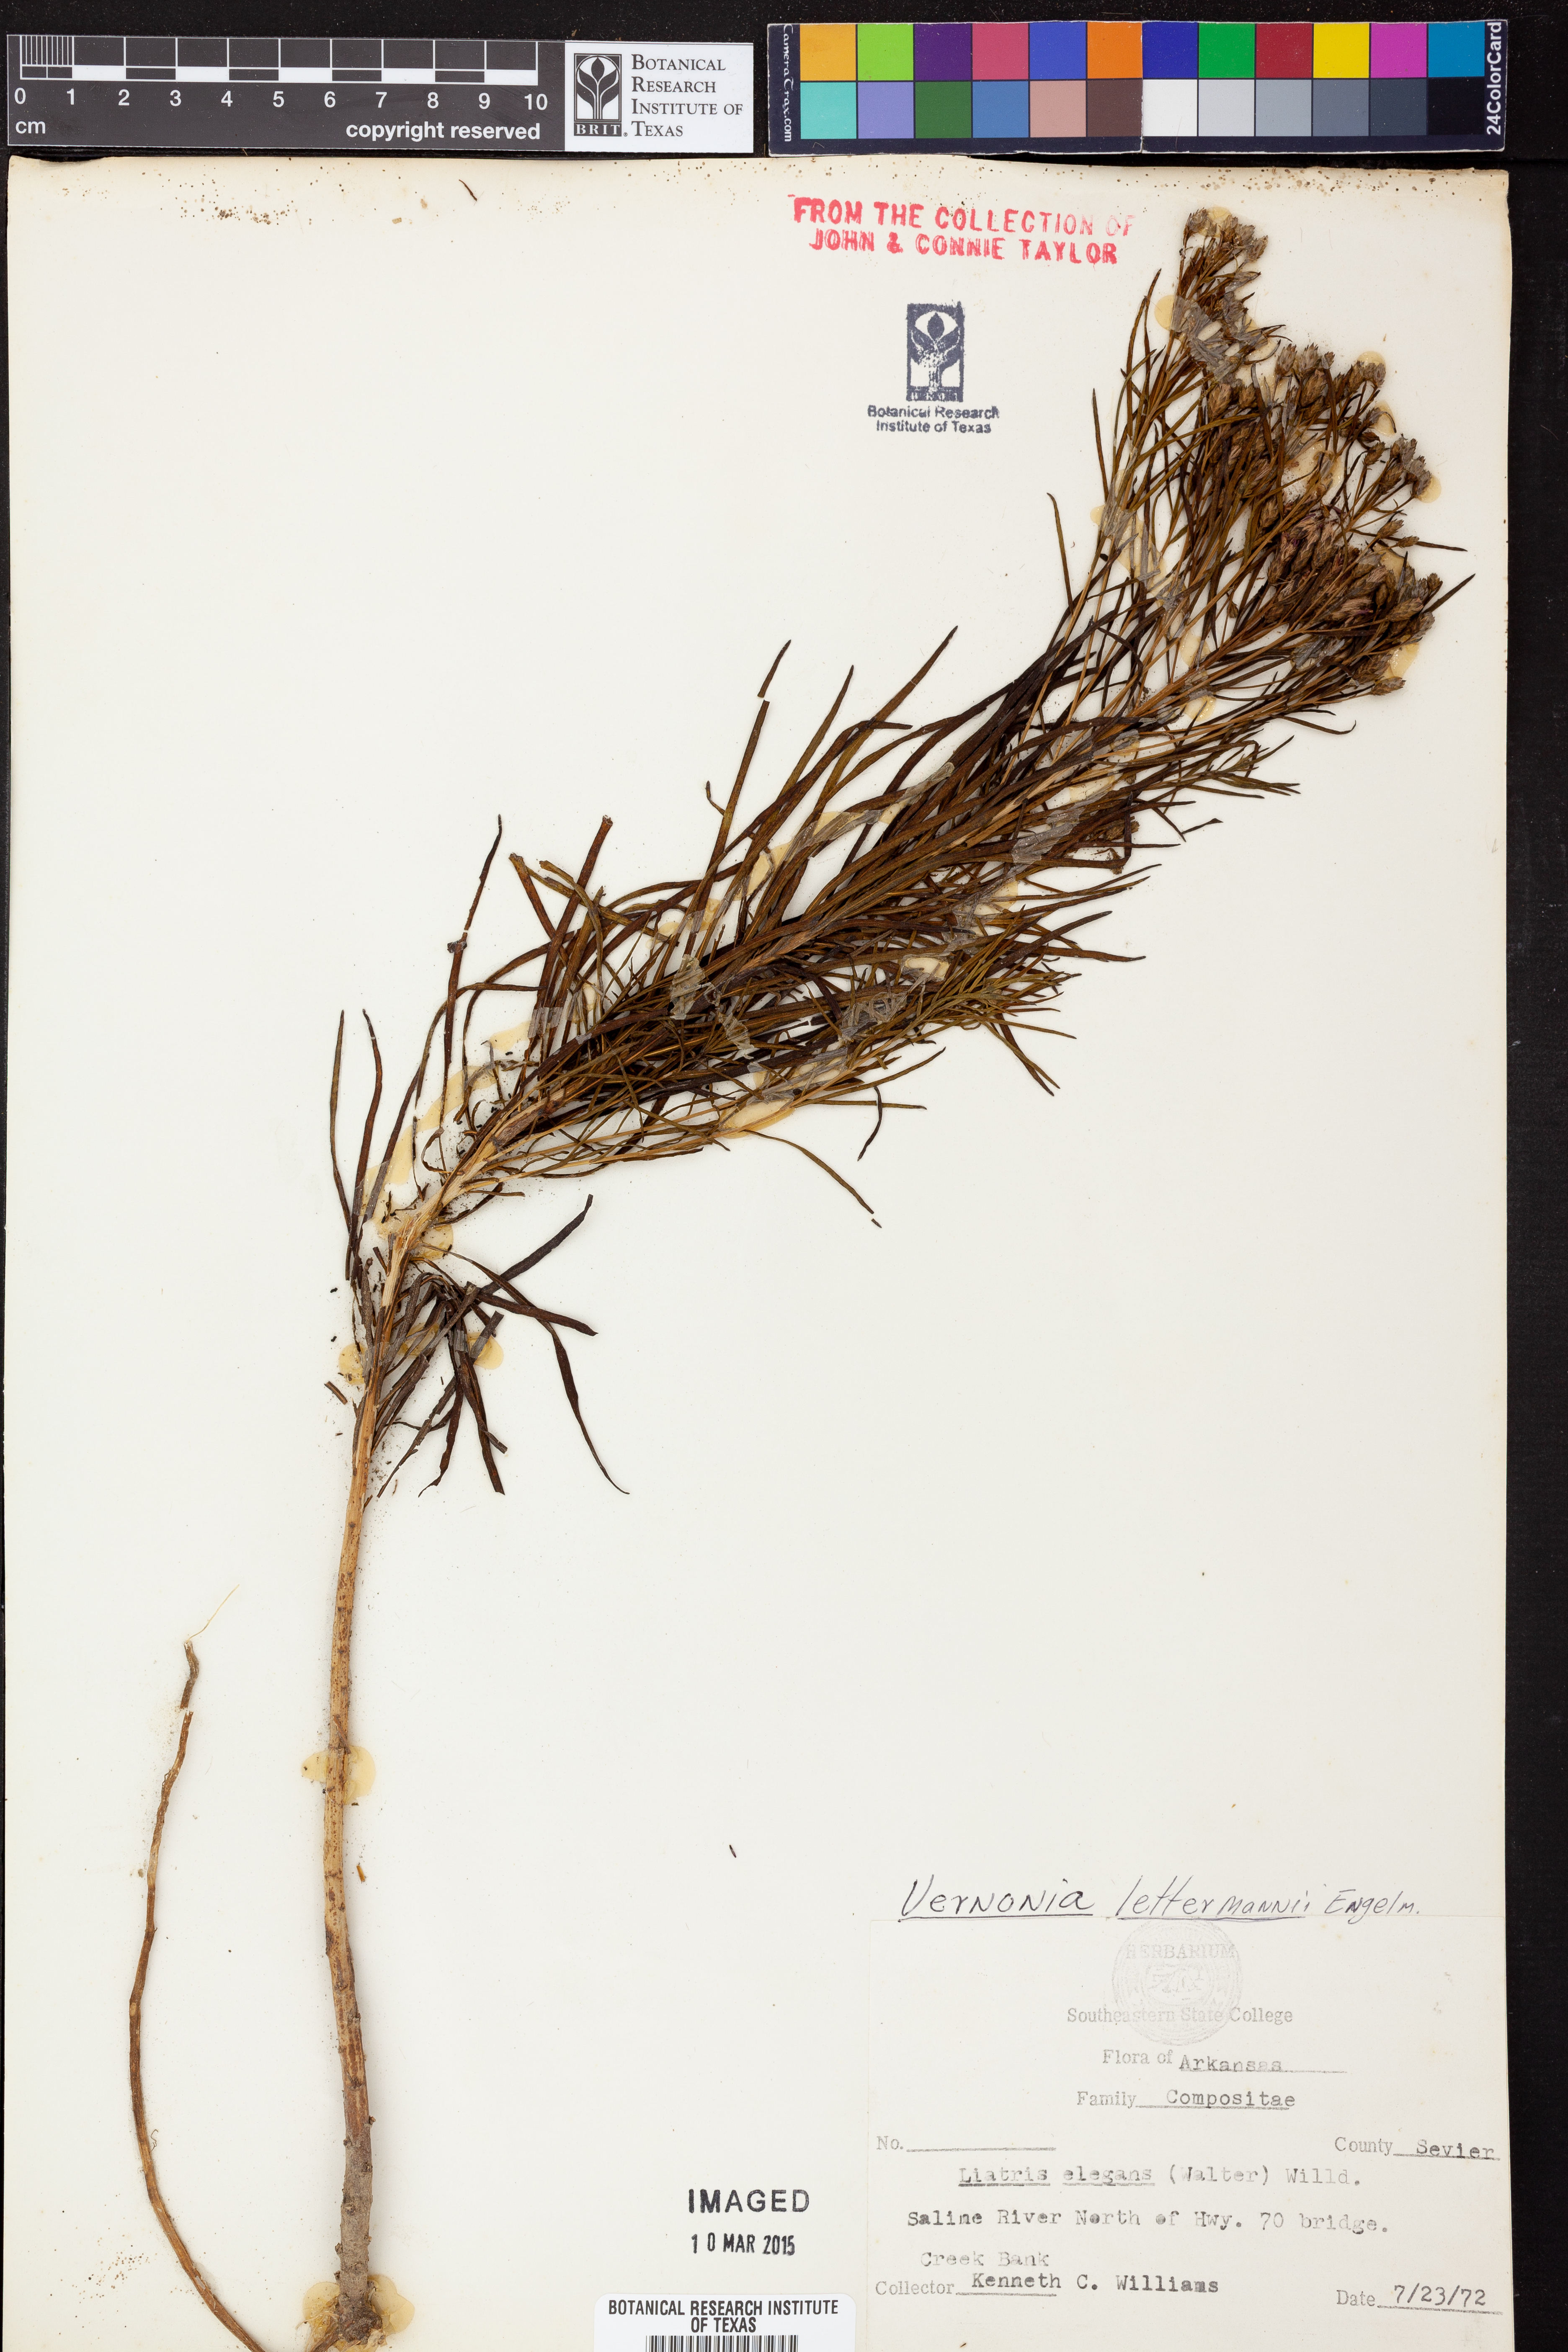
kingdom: Plantae
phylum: Tracheophyta
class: Magnoliopsida
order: Asterales
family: Asteraceae
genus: Vernonia
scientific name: Vernonia lettermannii
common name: Lettermann's ironweed
